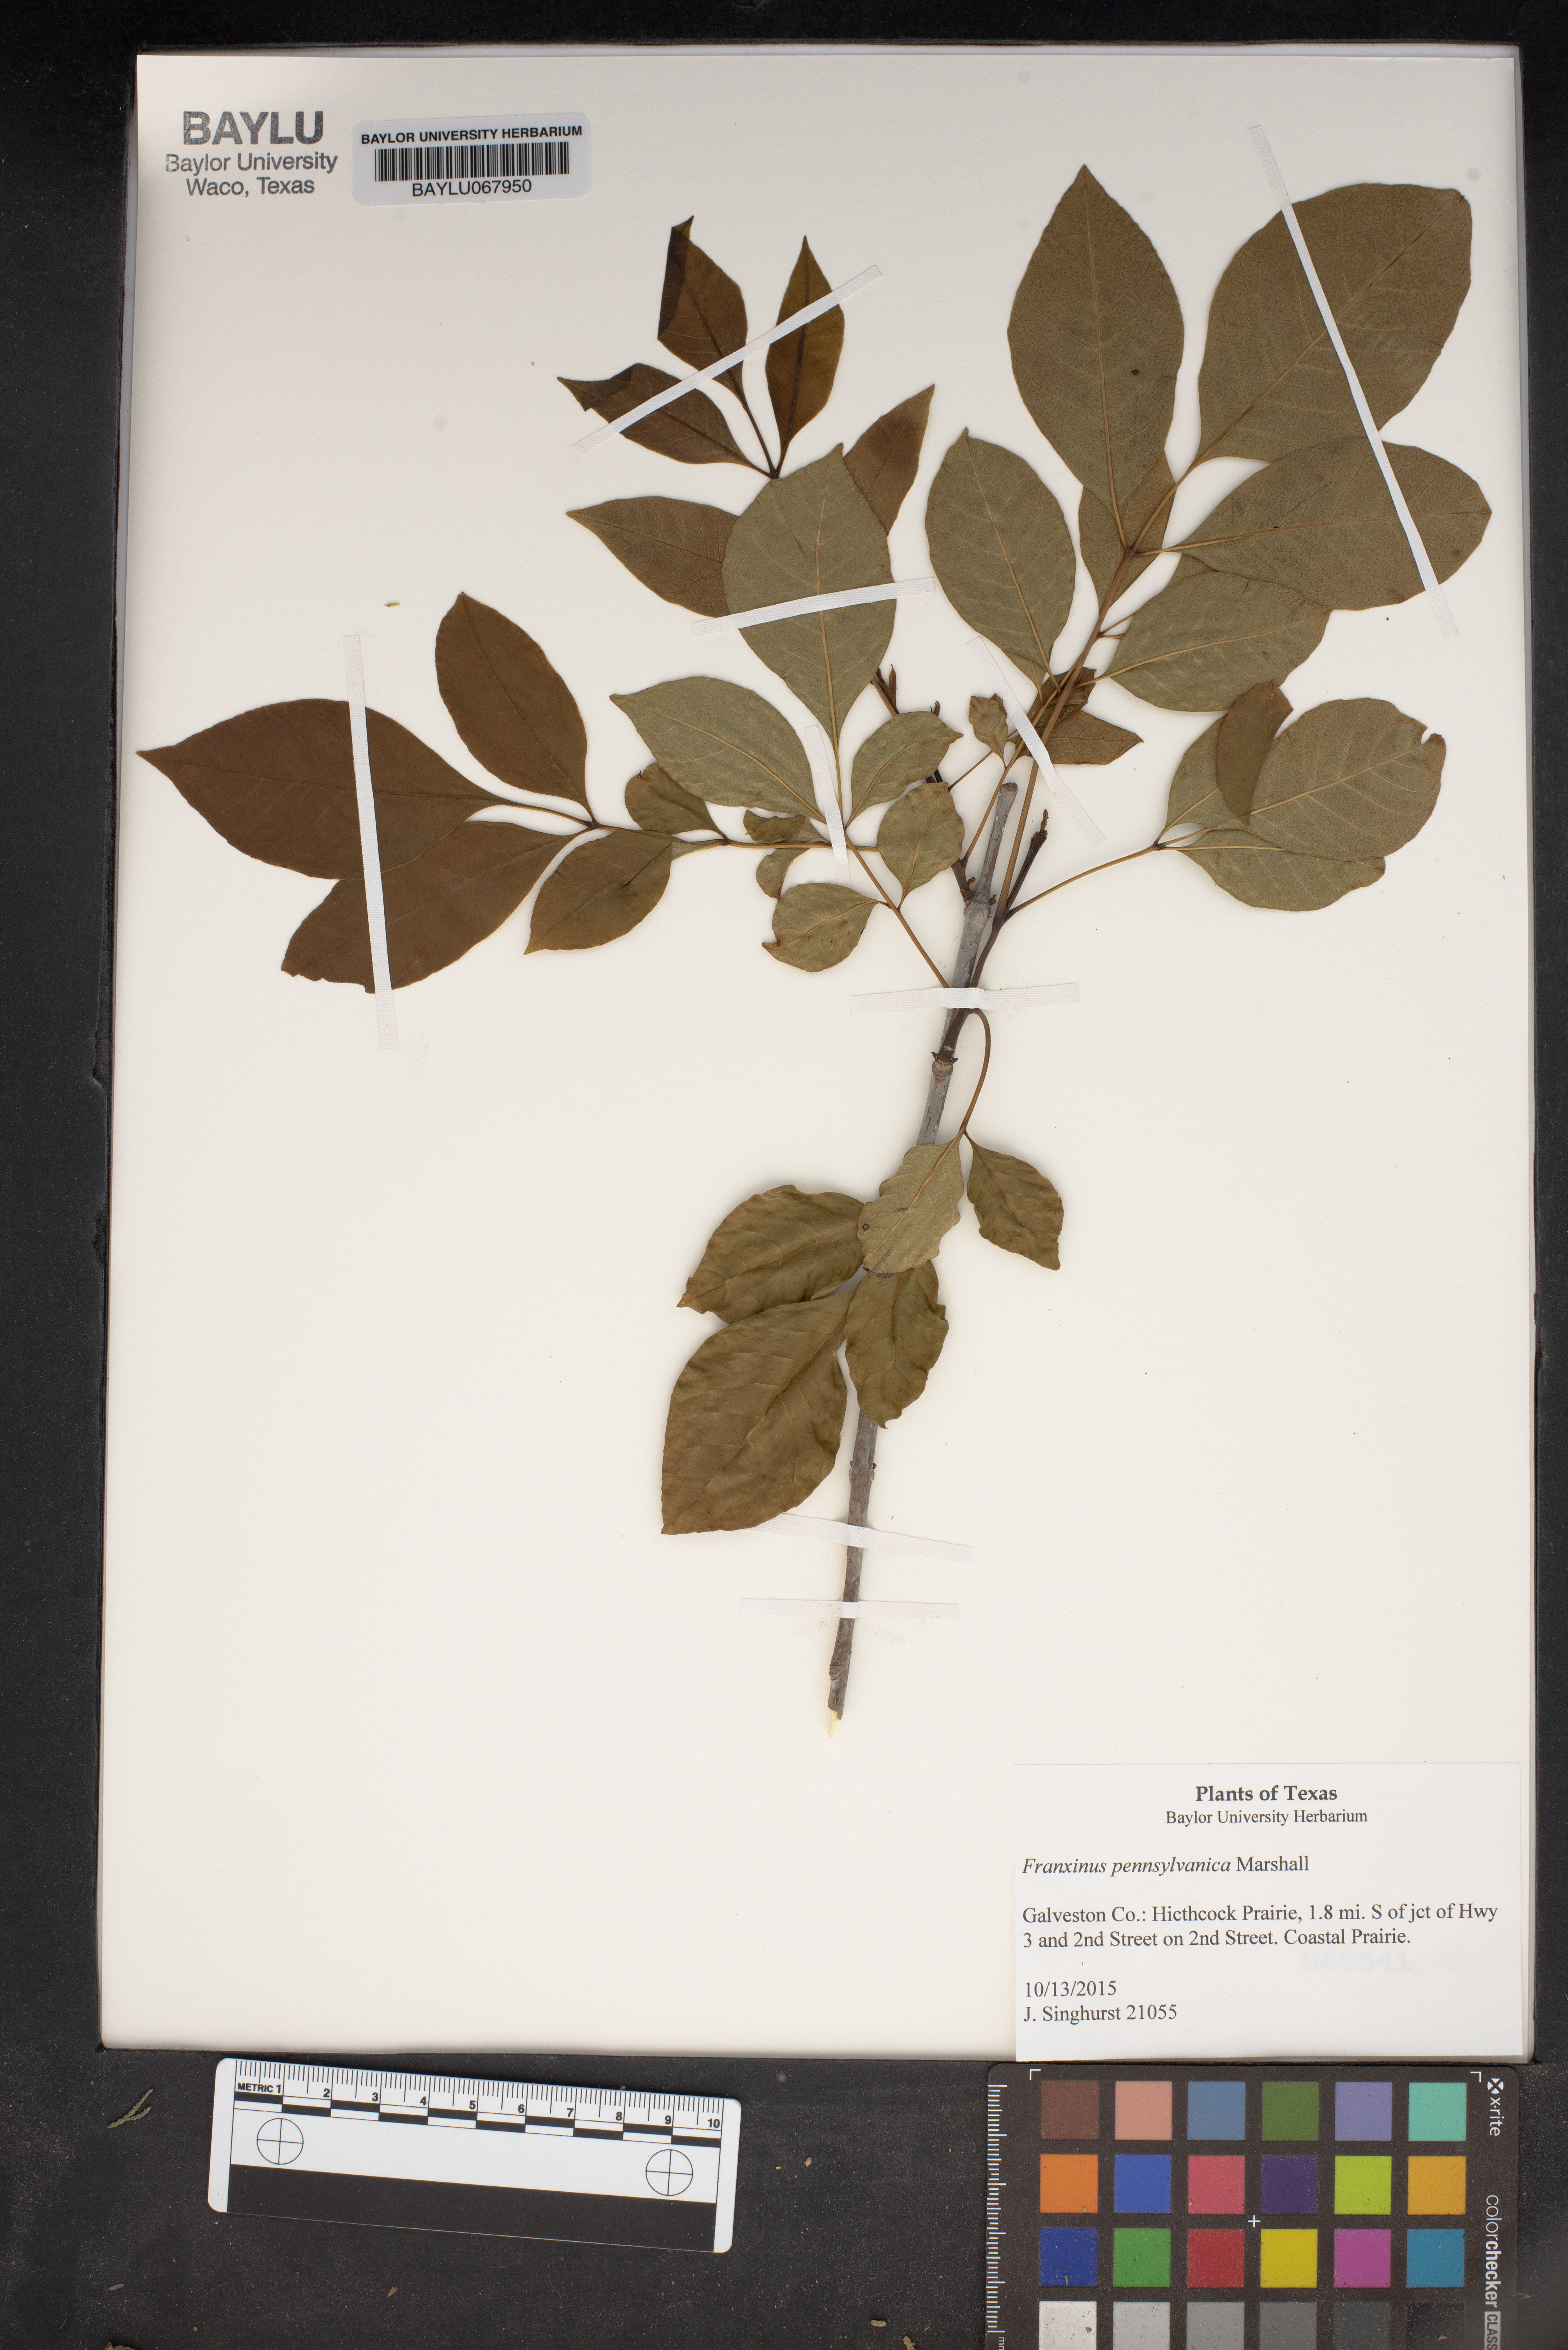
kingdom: Plantae
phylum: Tracheophyta
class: Magnoliopsida
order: Lamiales
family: Oleaceae
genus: Fraxinus
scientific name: Fraxinus pennsylvanica
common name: Green ash
